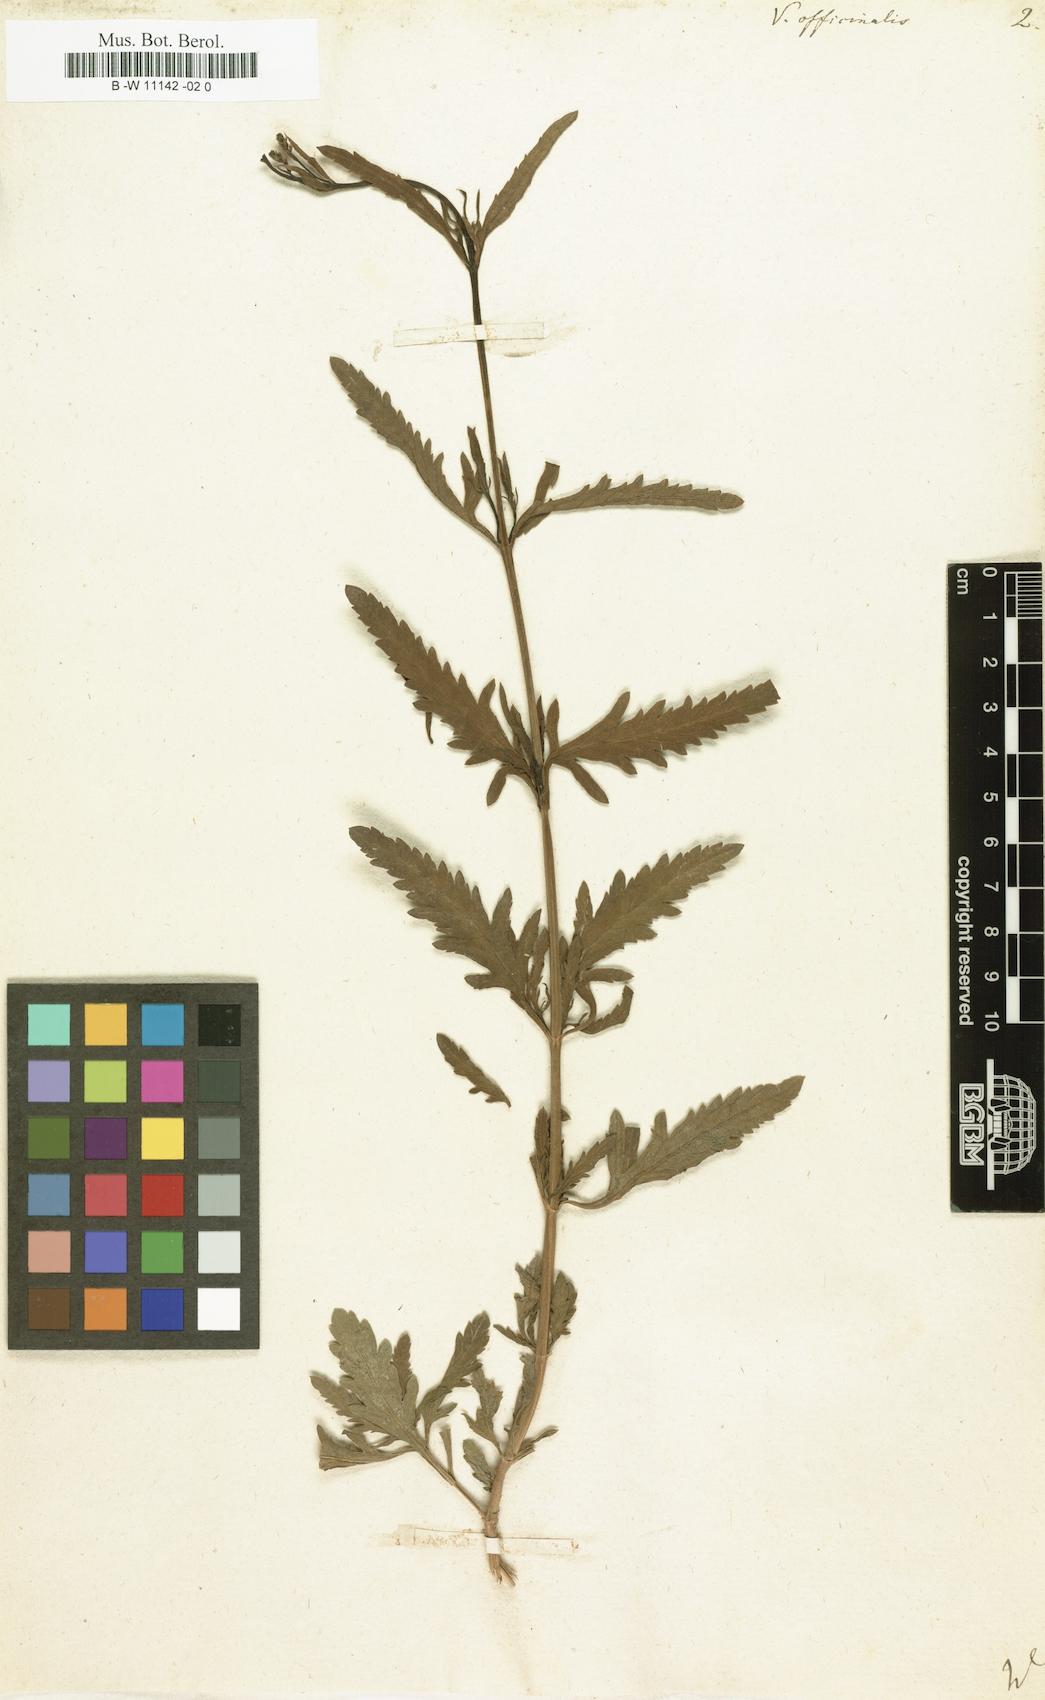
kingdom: Plantae
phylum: Tracheophyta
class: Magnoliopsida
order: Lamiales
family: Verbenaceae
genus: Verbena
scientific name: Verbena officinalis
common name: Vervain
